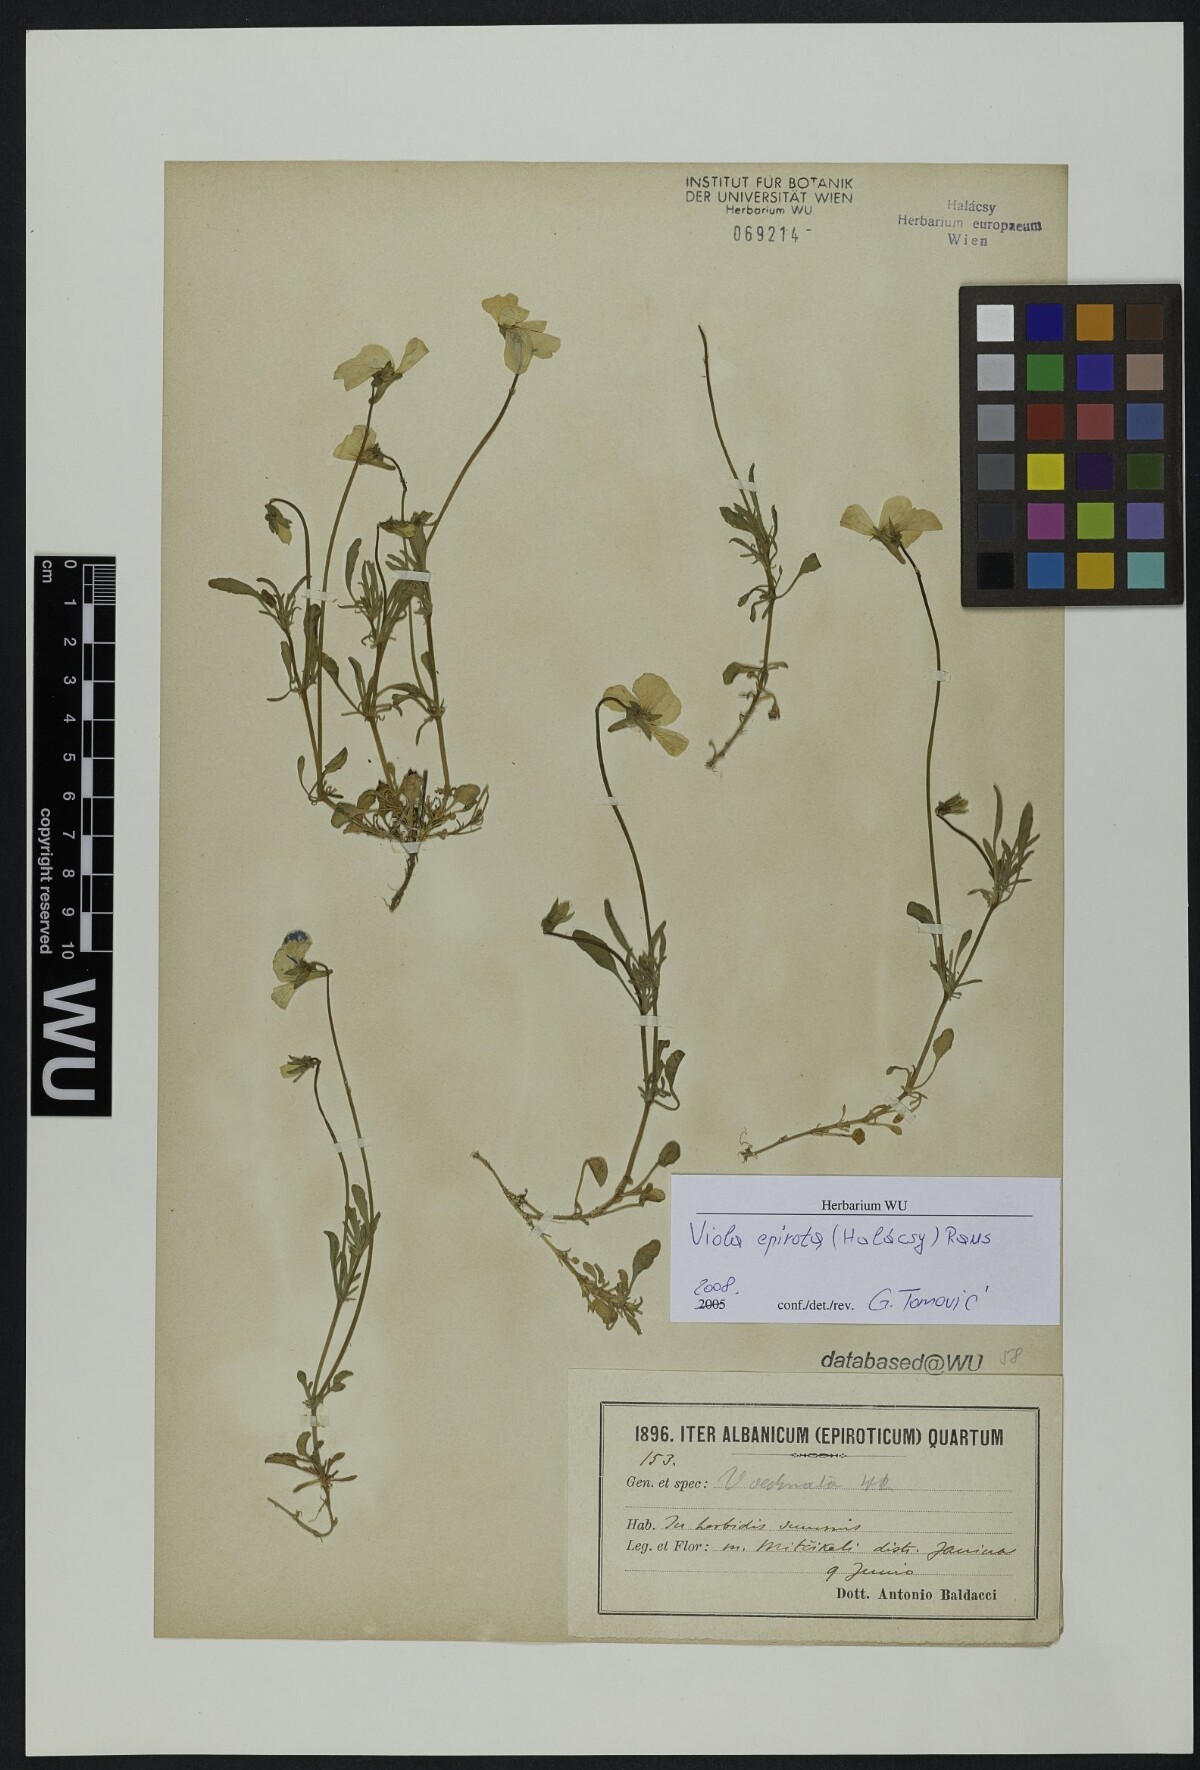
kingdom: Plantae
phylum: Tracheophyta
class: Magnoliopsida
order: Malpighiales
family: Violaceae
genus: Viola
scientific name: Viola epirota
